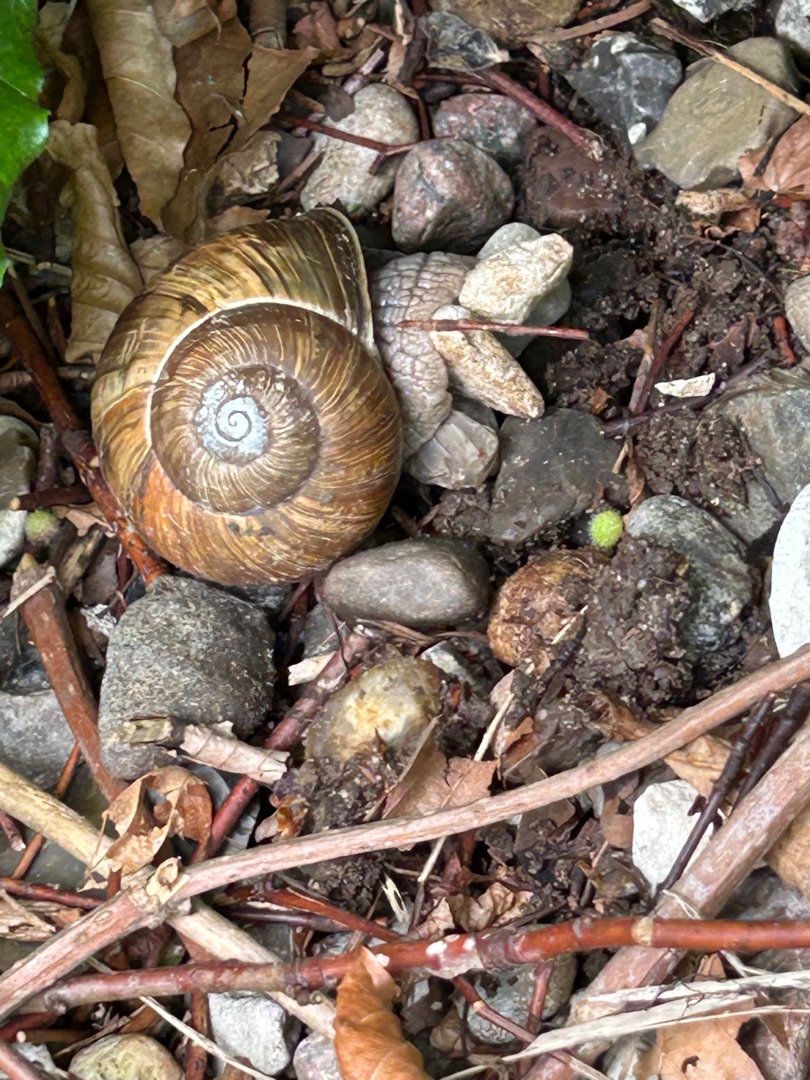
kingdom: Animalia
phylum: Mollusca
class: Gastropoda
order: Stylommatophora
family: Helicidae
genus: Helix
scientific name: Helix pomatia
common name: Vinbjergsnegl
